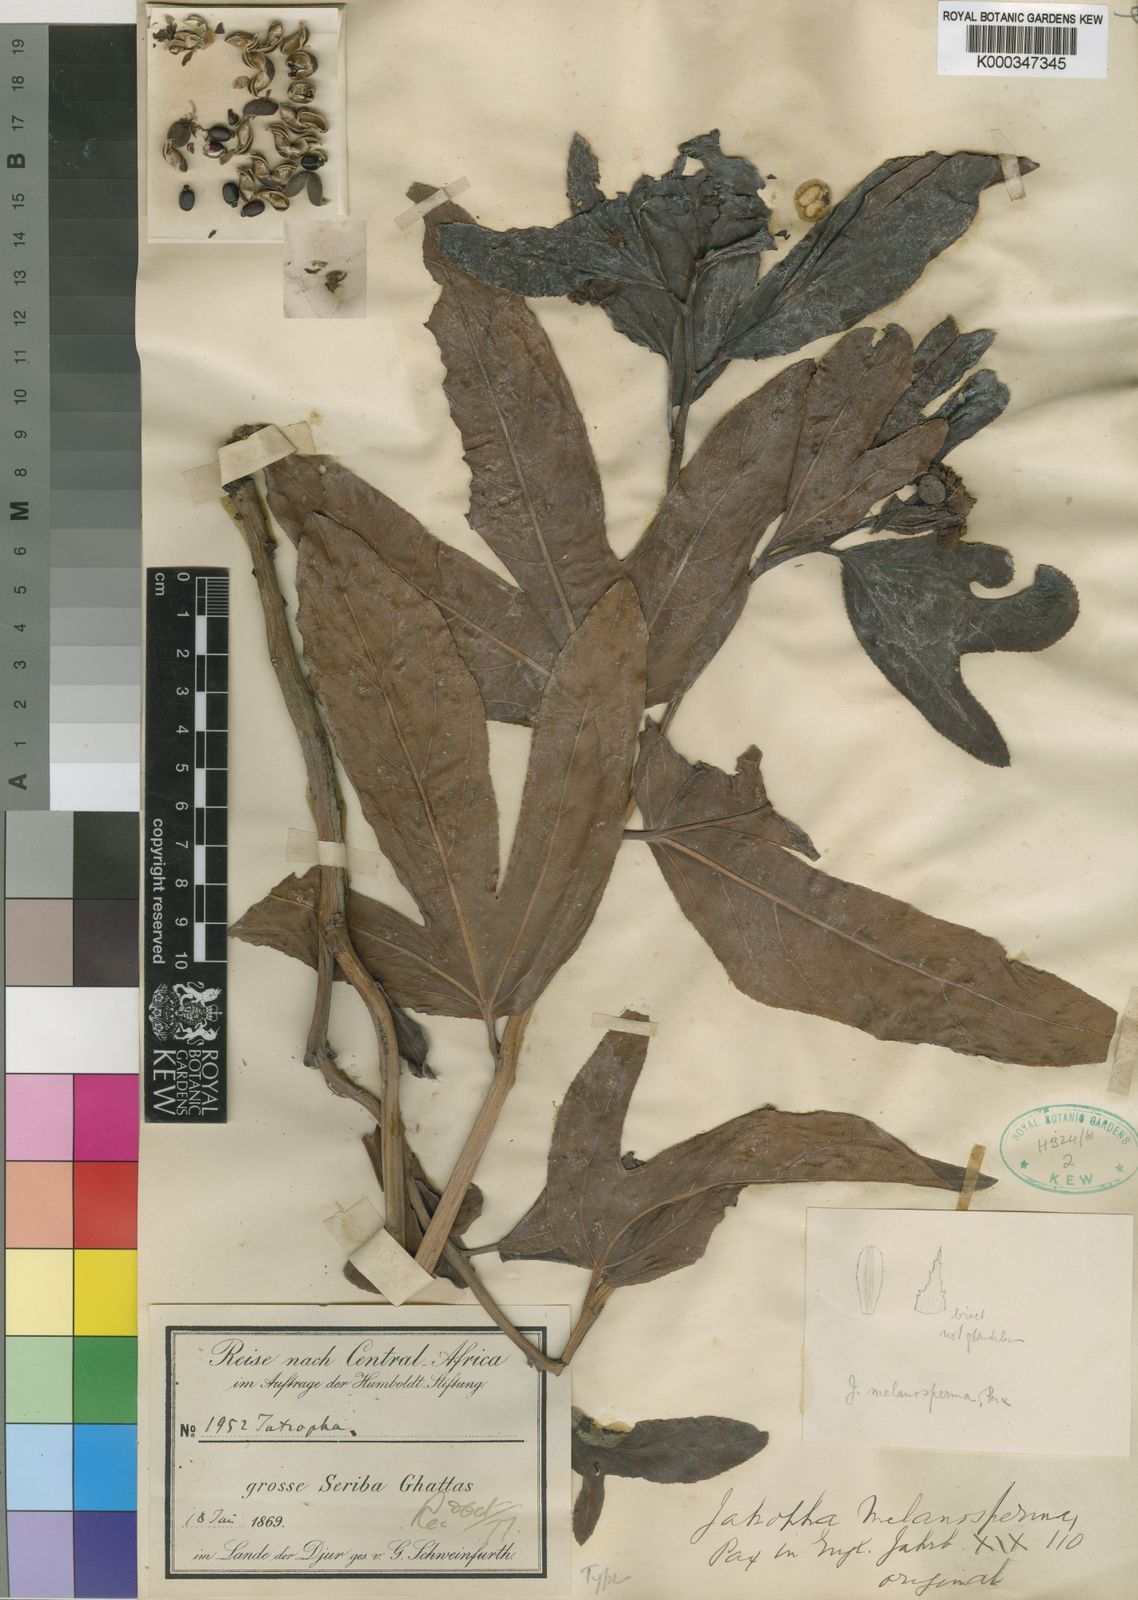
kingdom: Plantae
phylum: Tracheophyta
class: Magnoliopsida
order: Malpighiales
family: Euphorbiaceae
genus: Jatropha
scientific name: Jatropha melanosperma
